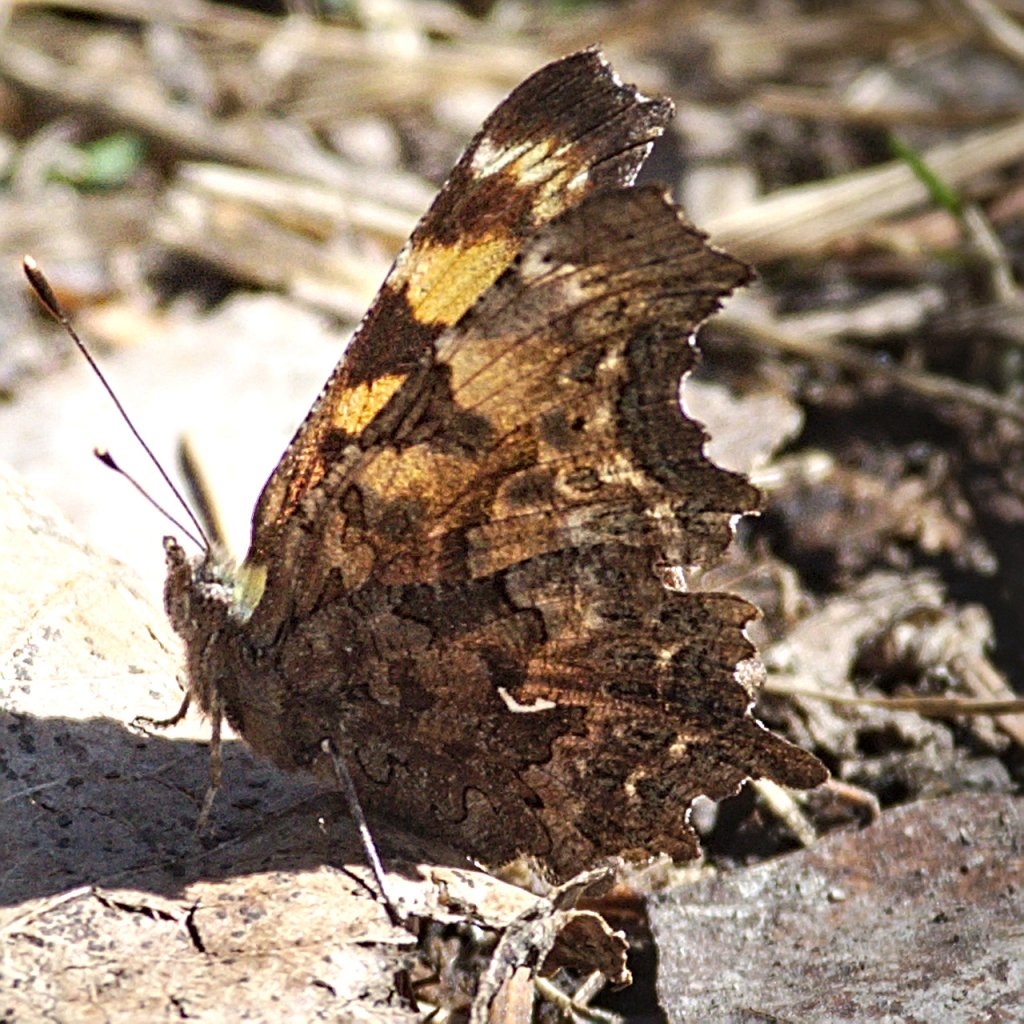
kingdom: Animalia
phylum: Arthropoda
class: Insecta
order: Lepidoptera
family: Nymphalidae
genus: Polygonia
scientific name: Polygonia faunus
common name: Green Comma
